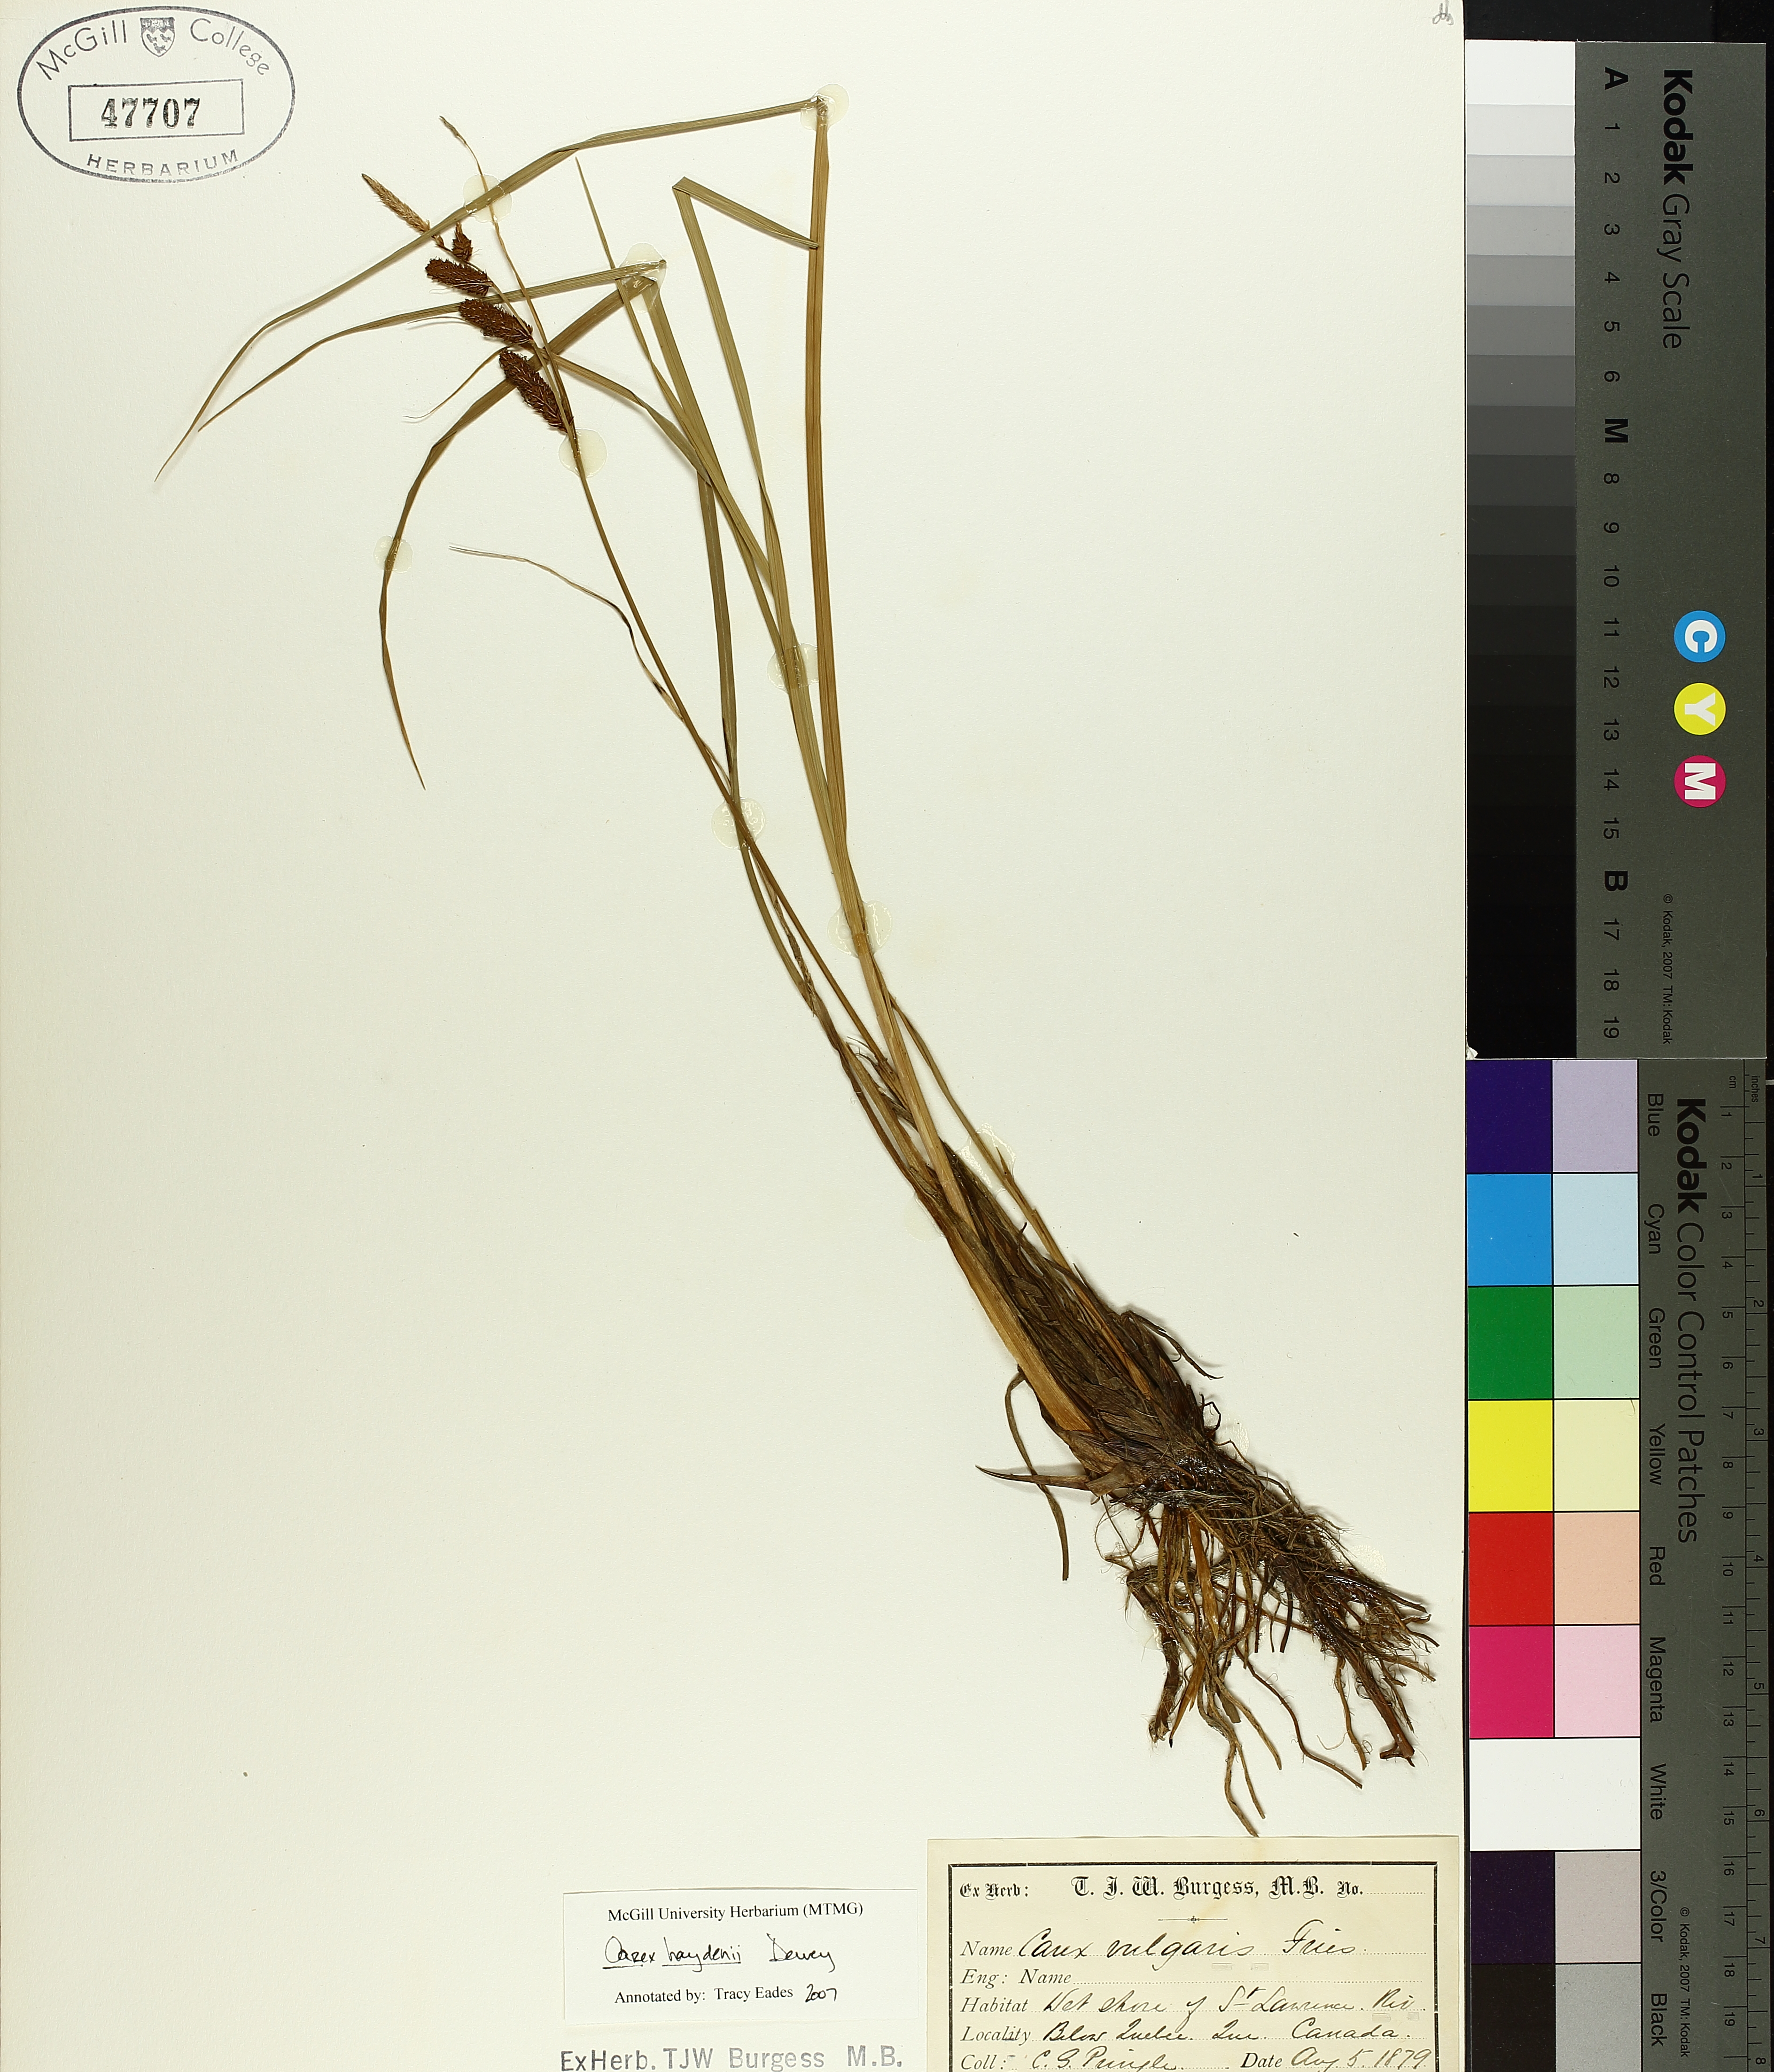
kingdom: Plantae
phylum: Tracheophyta
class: Liliopsida
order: Poales
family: Cyperaceae
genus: Carex
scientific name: Carex haydenii
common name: Hayden's sedge
